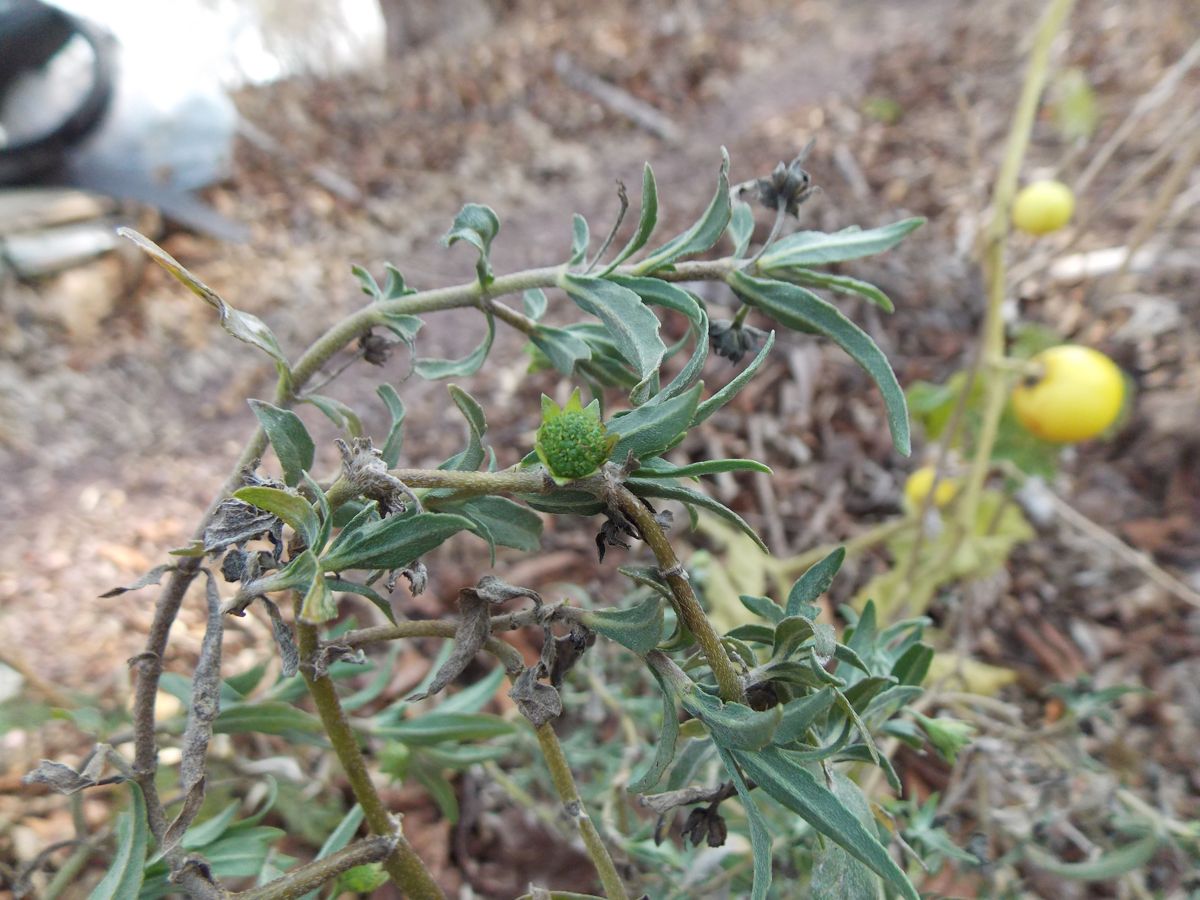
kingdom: Plantae
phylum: Tracheophyta
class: Magnoliopsida
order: Asterales
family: Asteraceae
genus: Eclipta
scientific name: Eclipta prostrata
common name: False daisy
